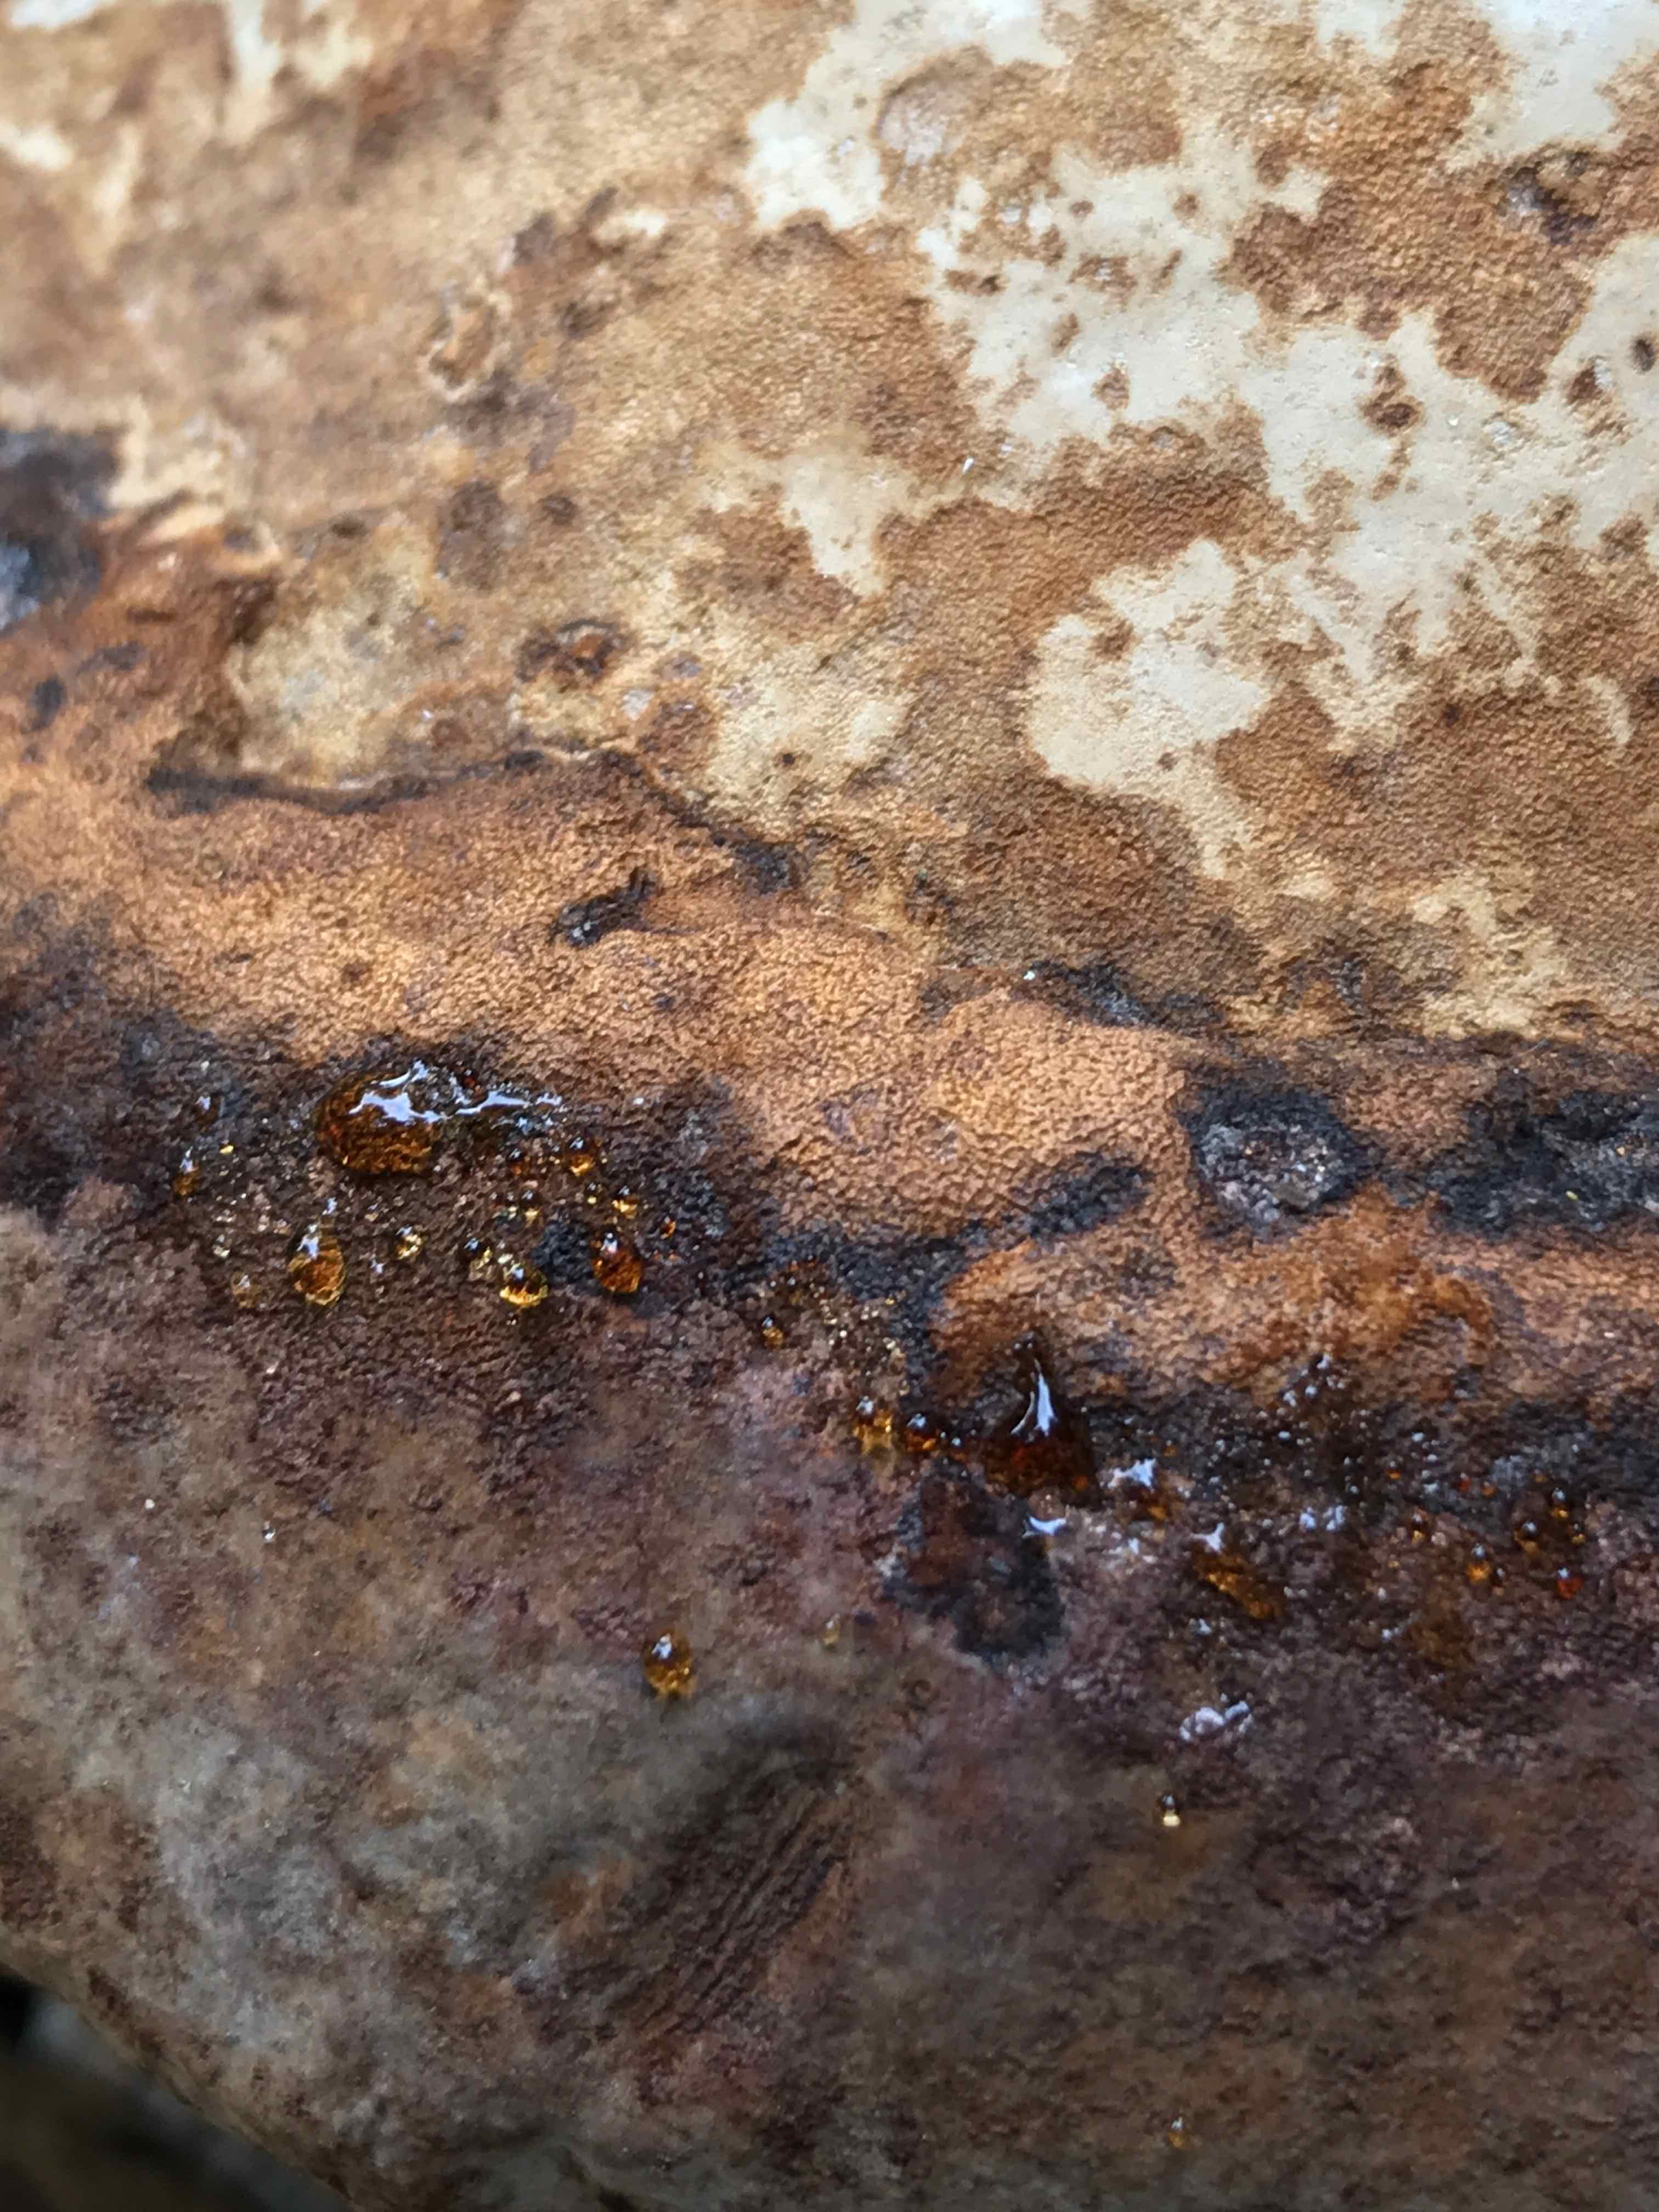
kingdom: Fungi
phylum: Basidiomycota
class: Agaricomycetes
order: Polyporales
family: Polyporaceae
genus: Fomes
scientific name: Fomes fomentarius
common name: tøndersvamp
